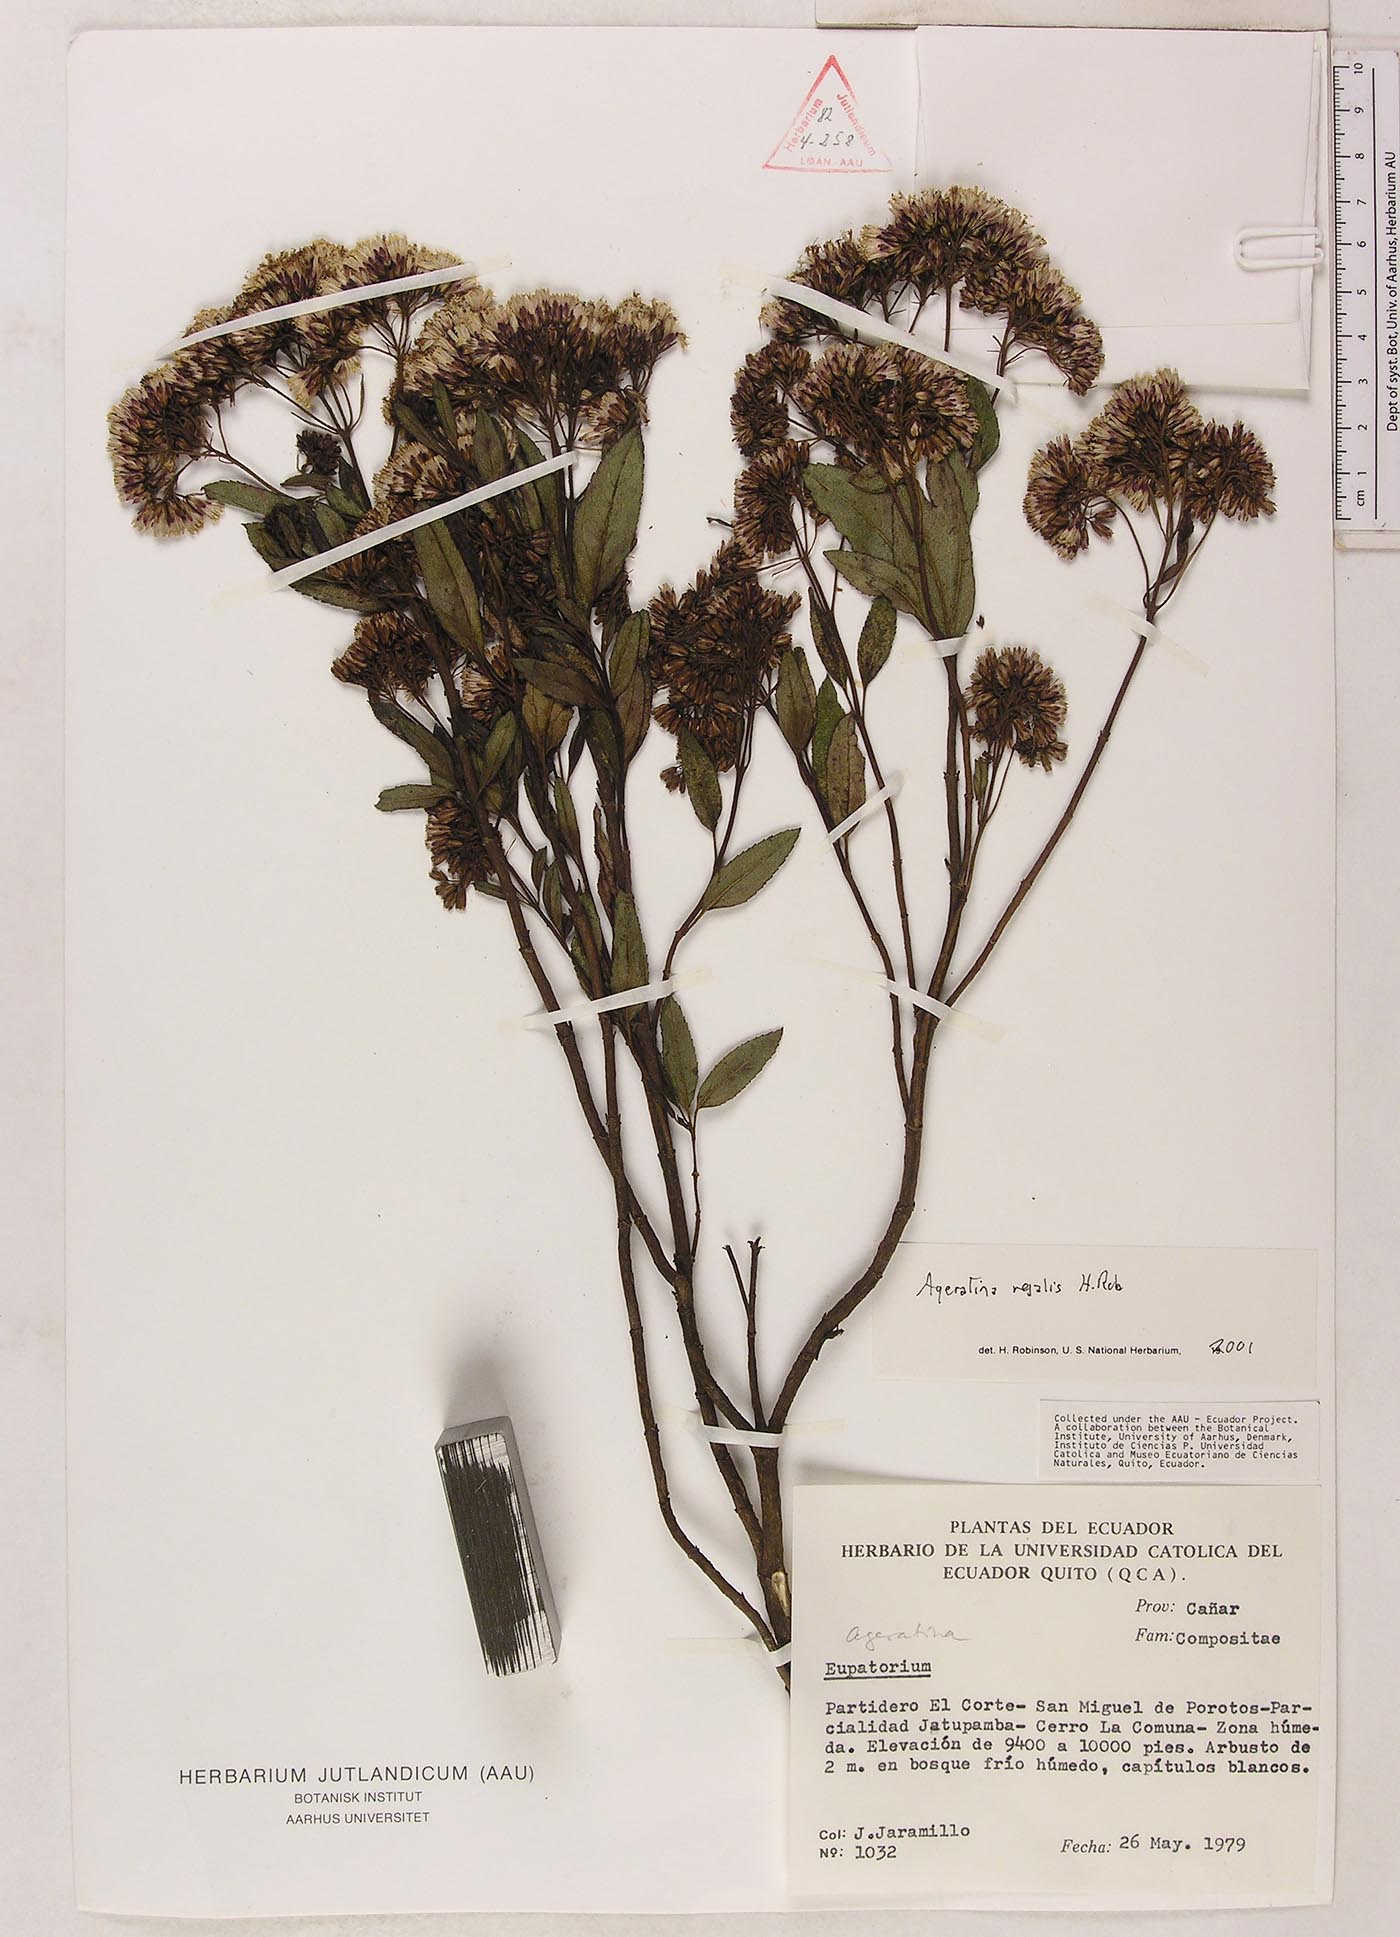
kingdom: Plantae
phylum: Tracheophyta
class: Magnoliopsida
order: Asterales
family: Asteraceae
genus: Ageratina
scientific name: Ageratina
